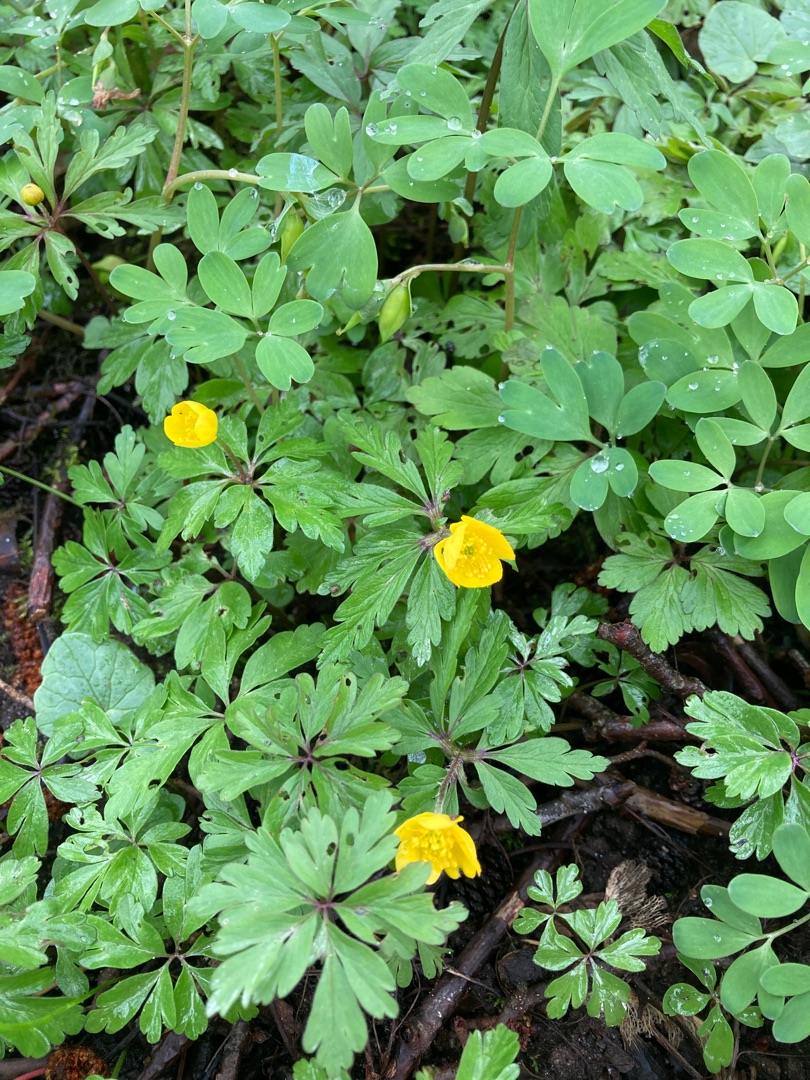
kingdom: Plantae
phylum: Tracheophyta
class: Magnoliopsida
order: Ranunculales
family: Ranunculaceae
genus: Anemone
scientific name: Anemone ranunculoides
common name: Gul anemone
